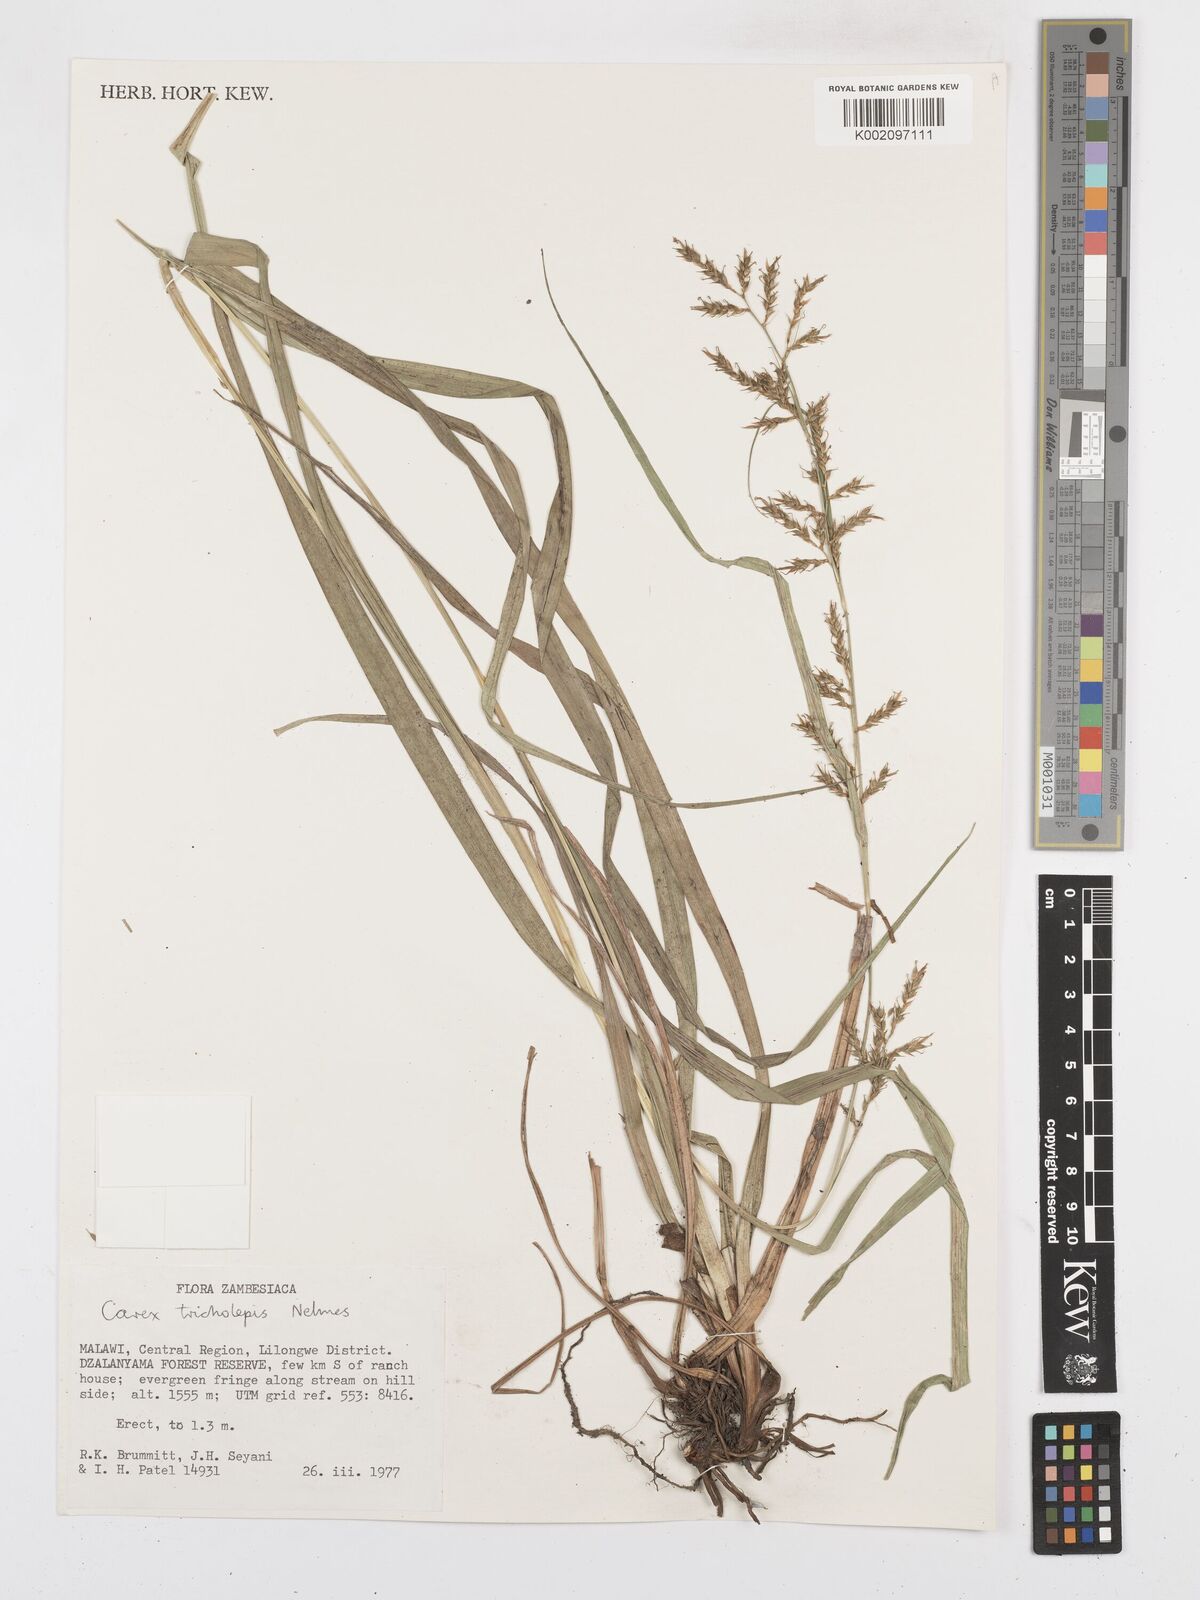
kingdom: Plantae
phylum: Tracheophyta
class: Liliopsida
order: Poales
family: Cyperaceae
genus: Carex
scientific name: Carex tricholepis
